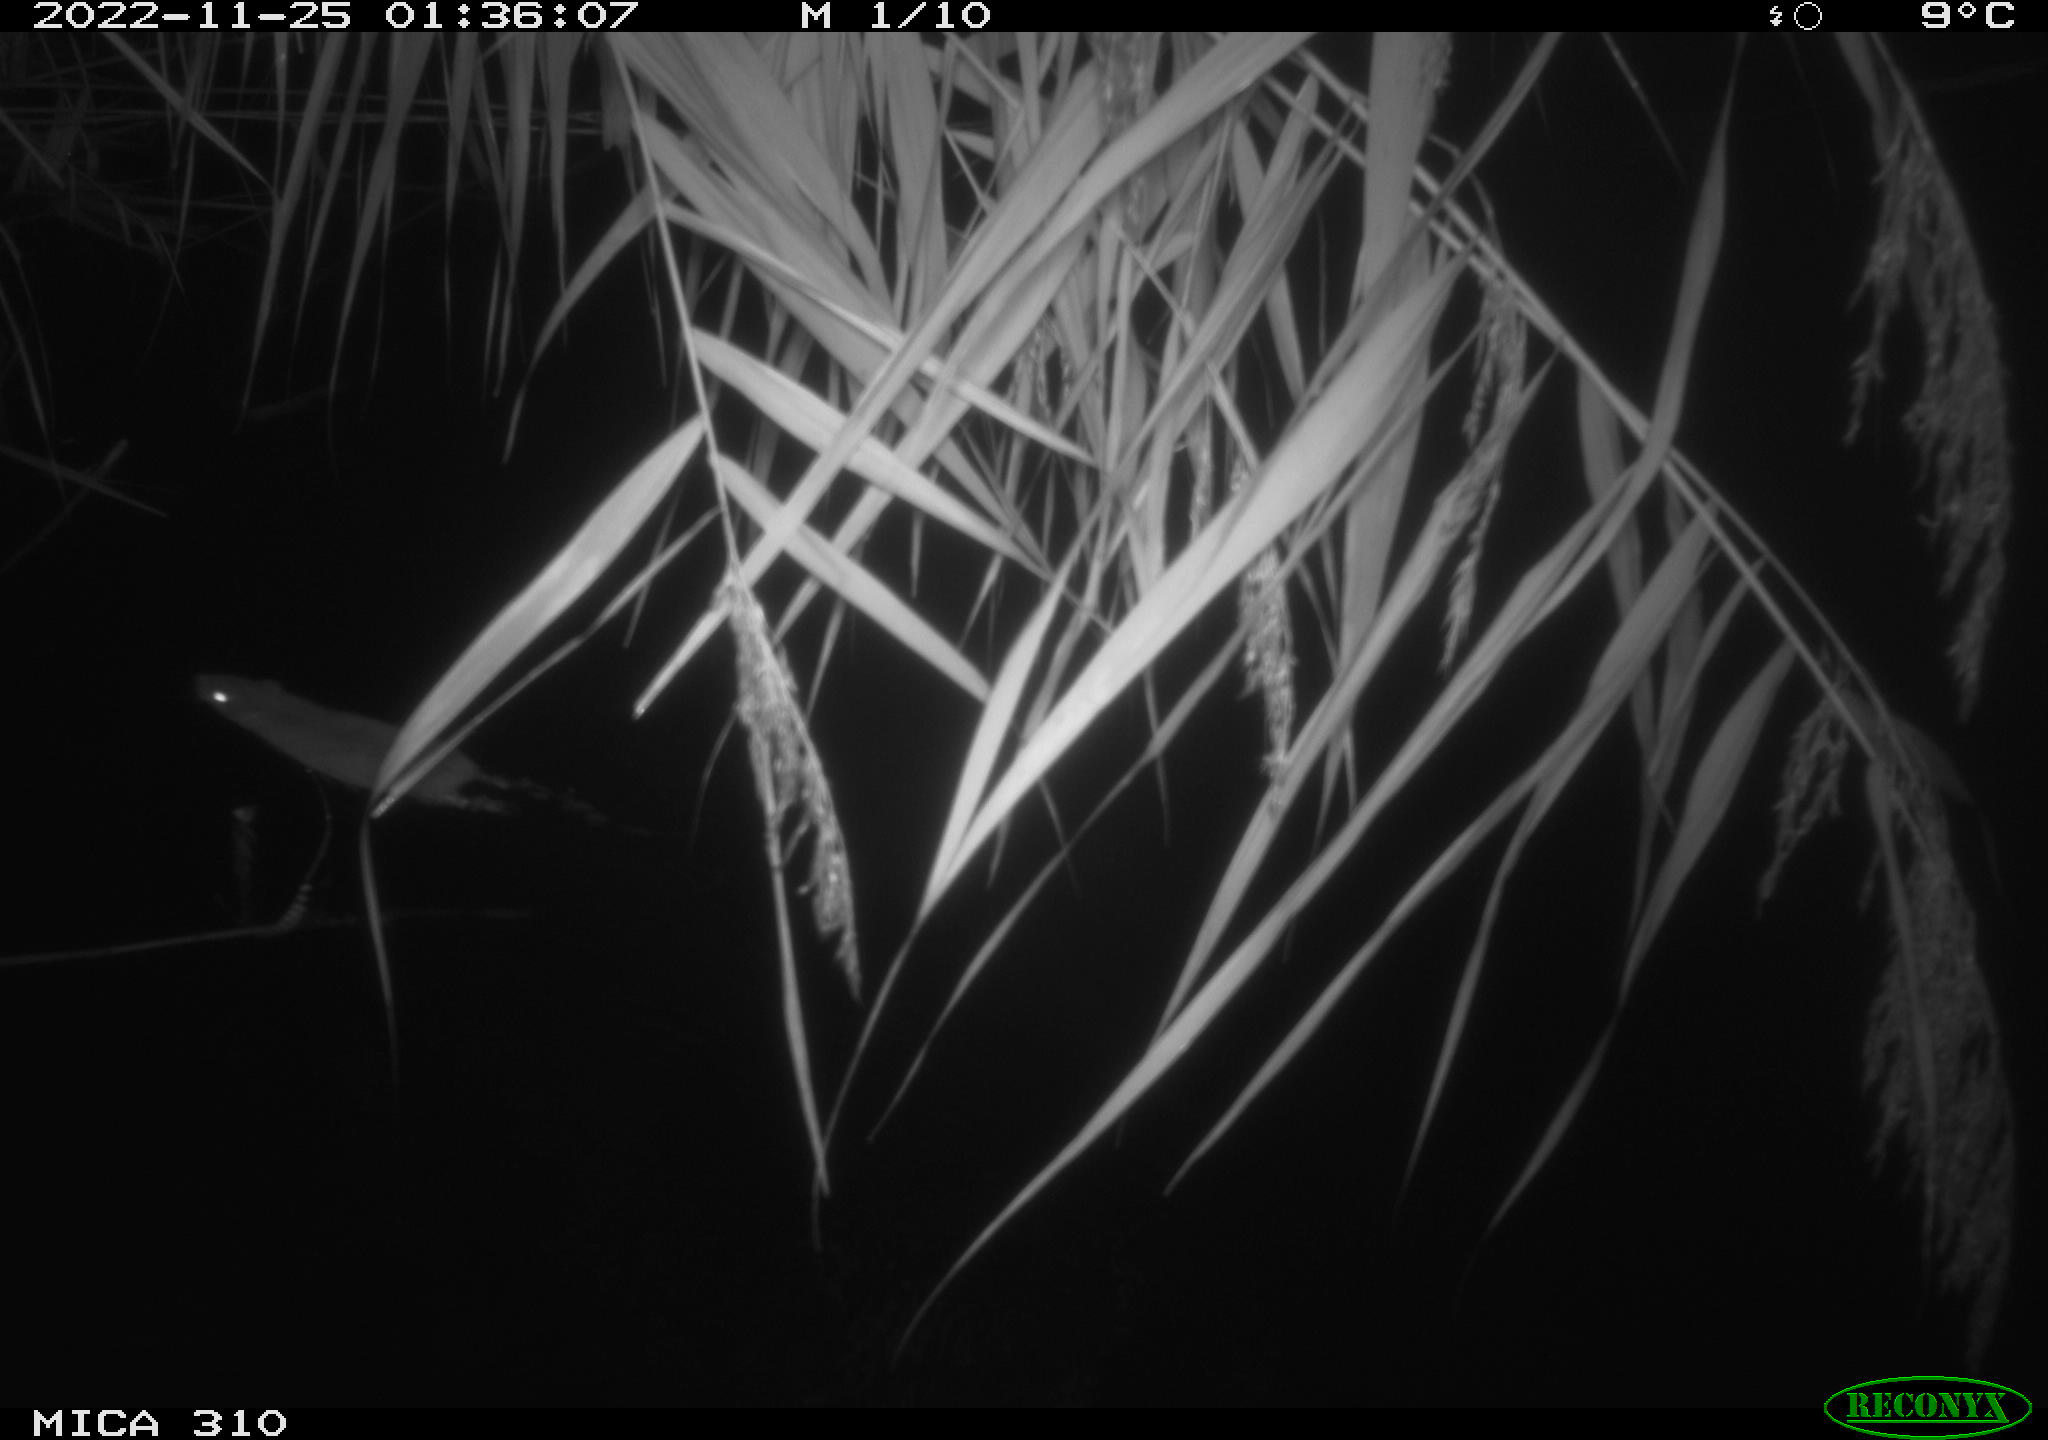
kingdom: Animalia
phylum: Chordata
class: Mammalia
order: Rodentia
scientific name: Rodentia
